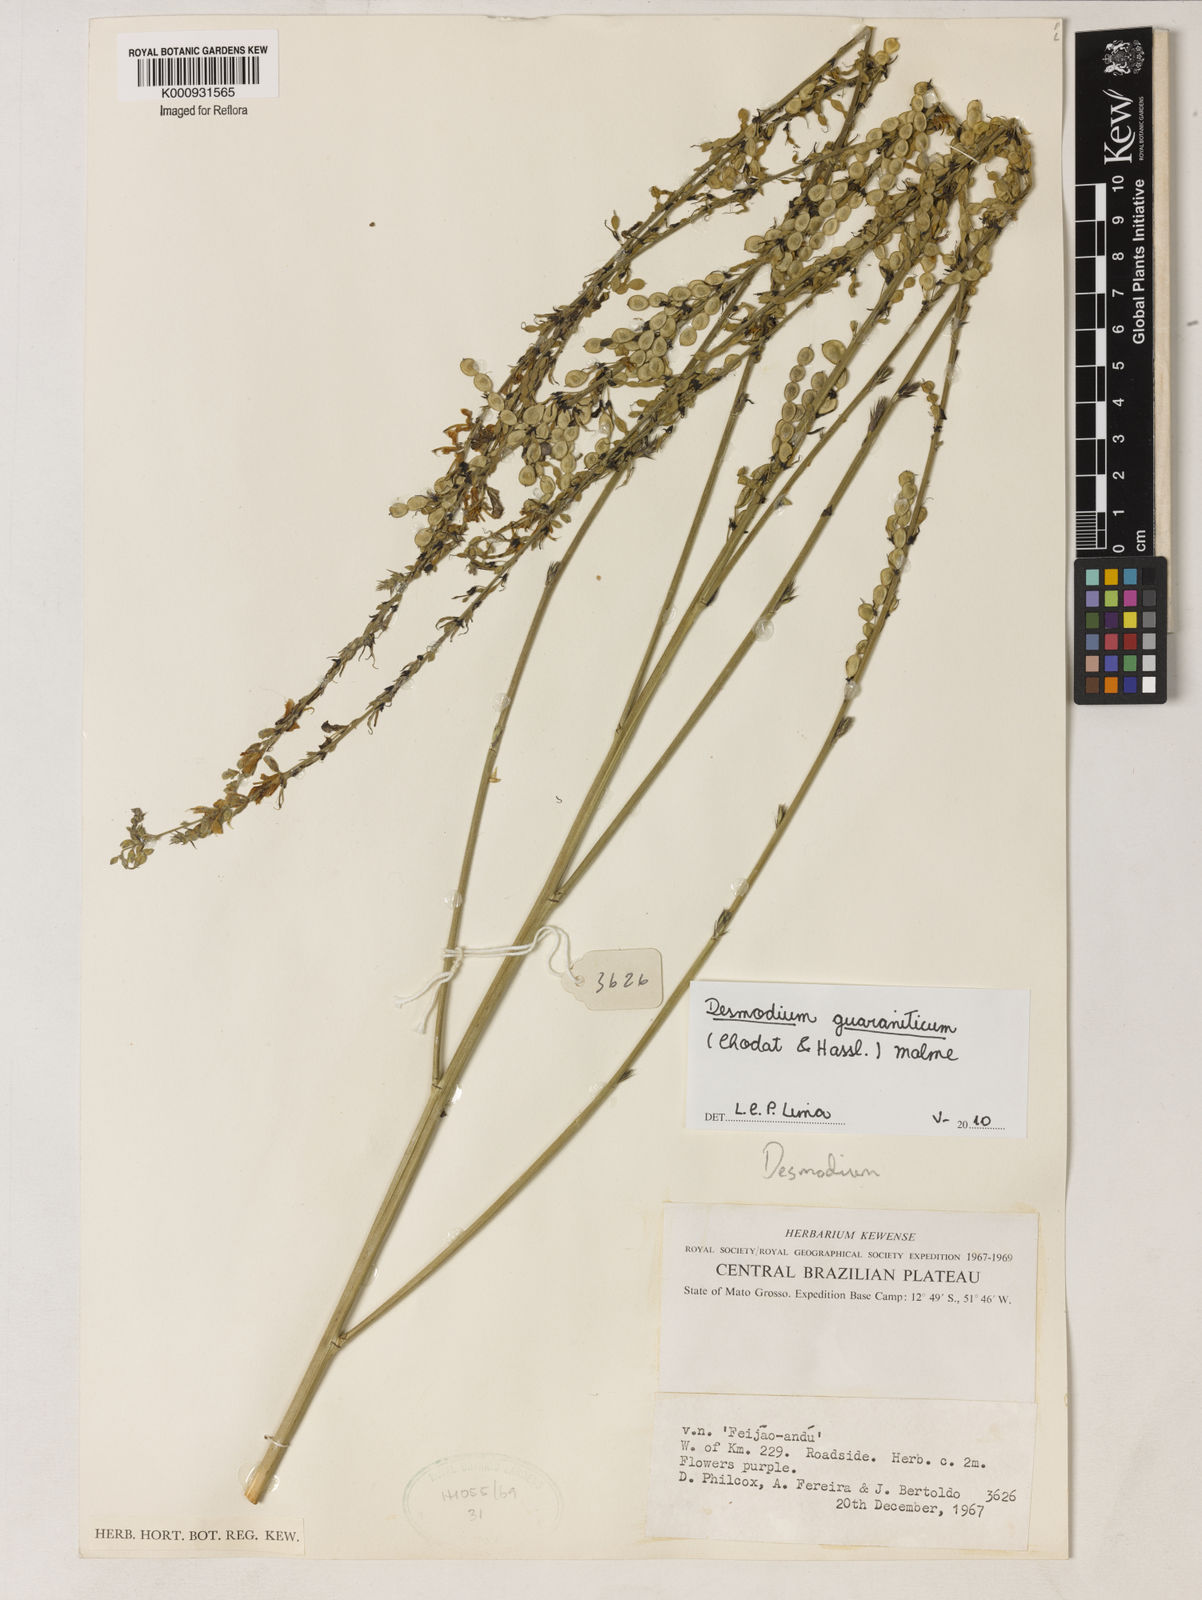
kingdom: Plantae
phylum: Tracheophyta
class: Magnoliopsida
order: Fabales
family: Fabaceae
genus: Desmodium
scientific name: Desmodium guaraniticum
